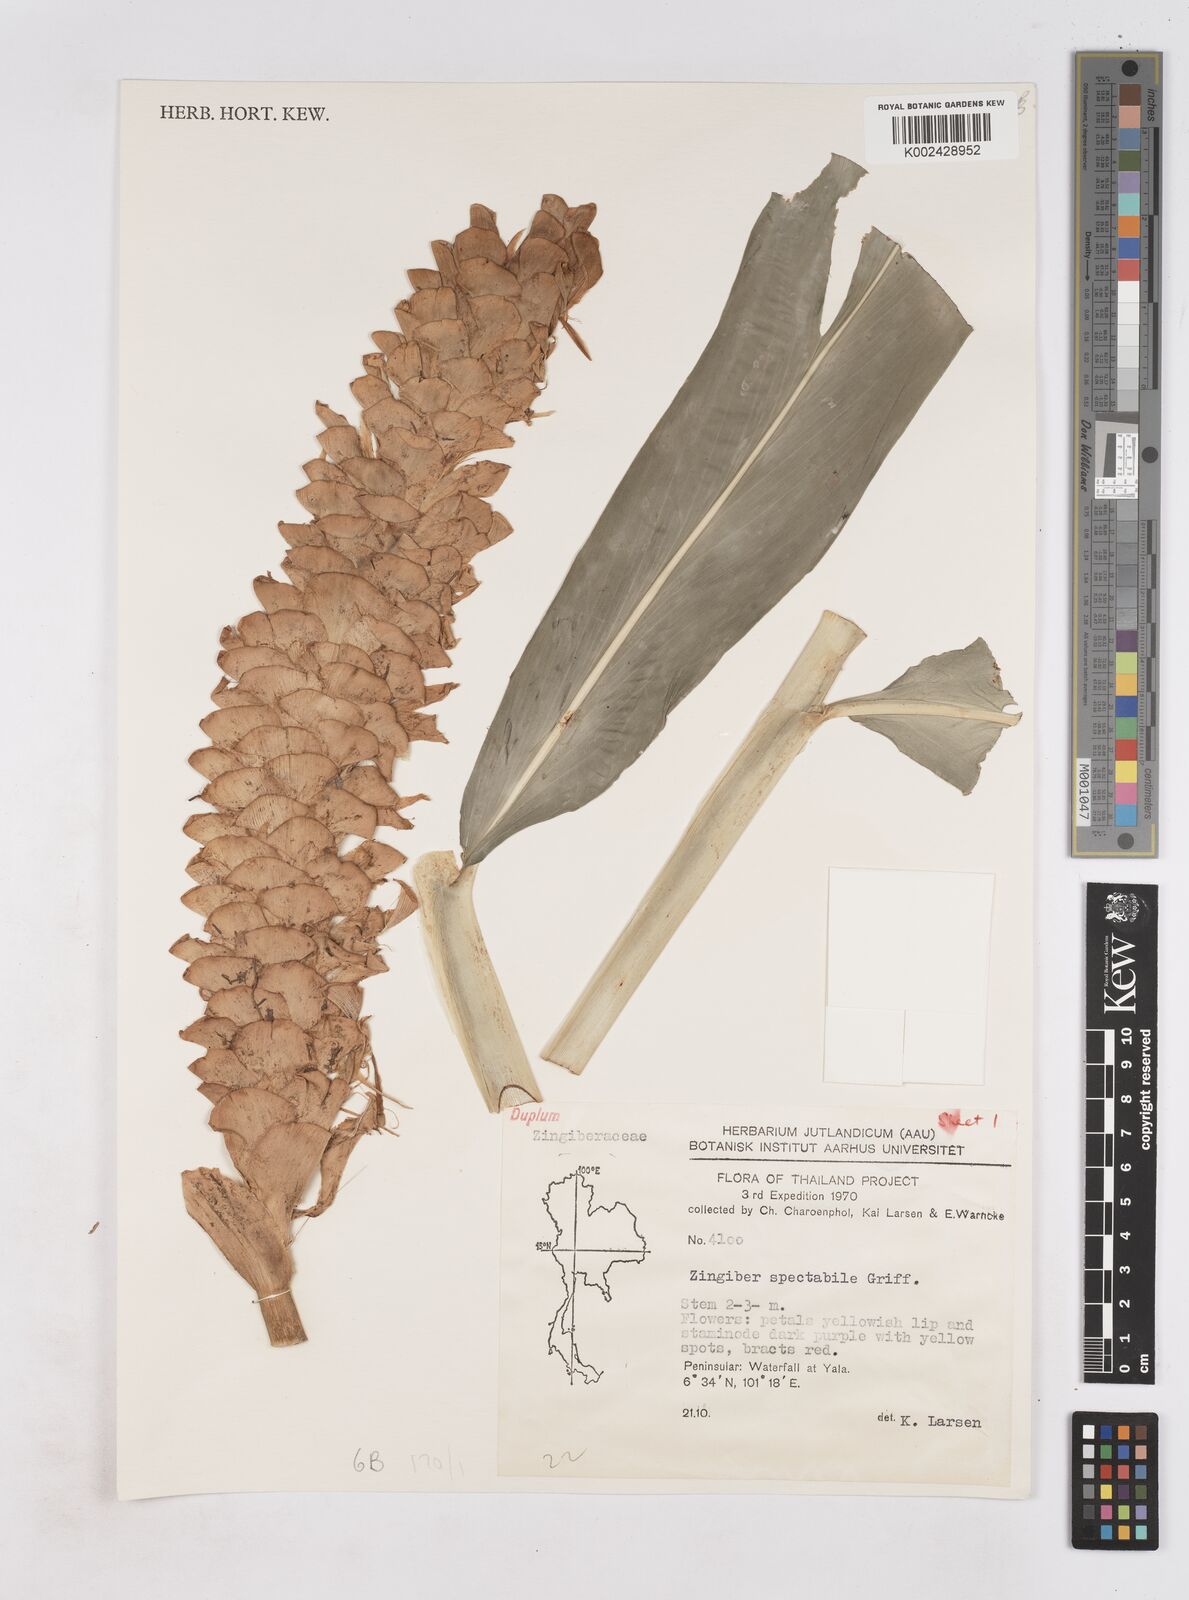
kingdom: Plantae
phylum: Tracheophyta
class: Liliopsida
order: Zingiberales
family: Zingiberaceae
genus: Zingiber
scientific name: Zingiber spectabile
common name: Beehive ginger
